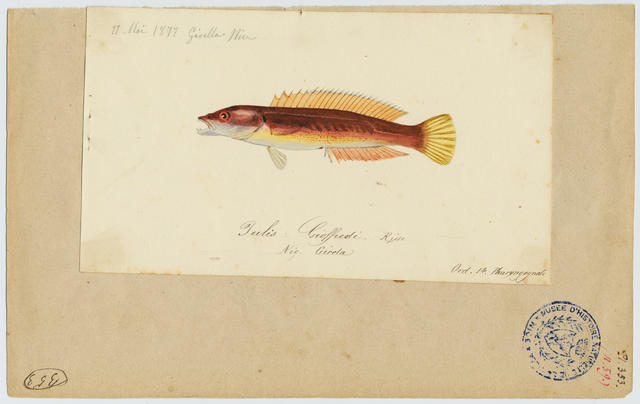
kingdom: Animalia
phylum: Chordata
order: Perciformes
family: Labridae
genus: Coris
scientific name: Coris julis
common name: Rainbow wrasse
